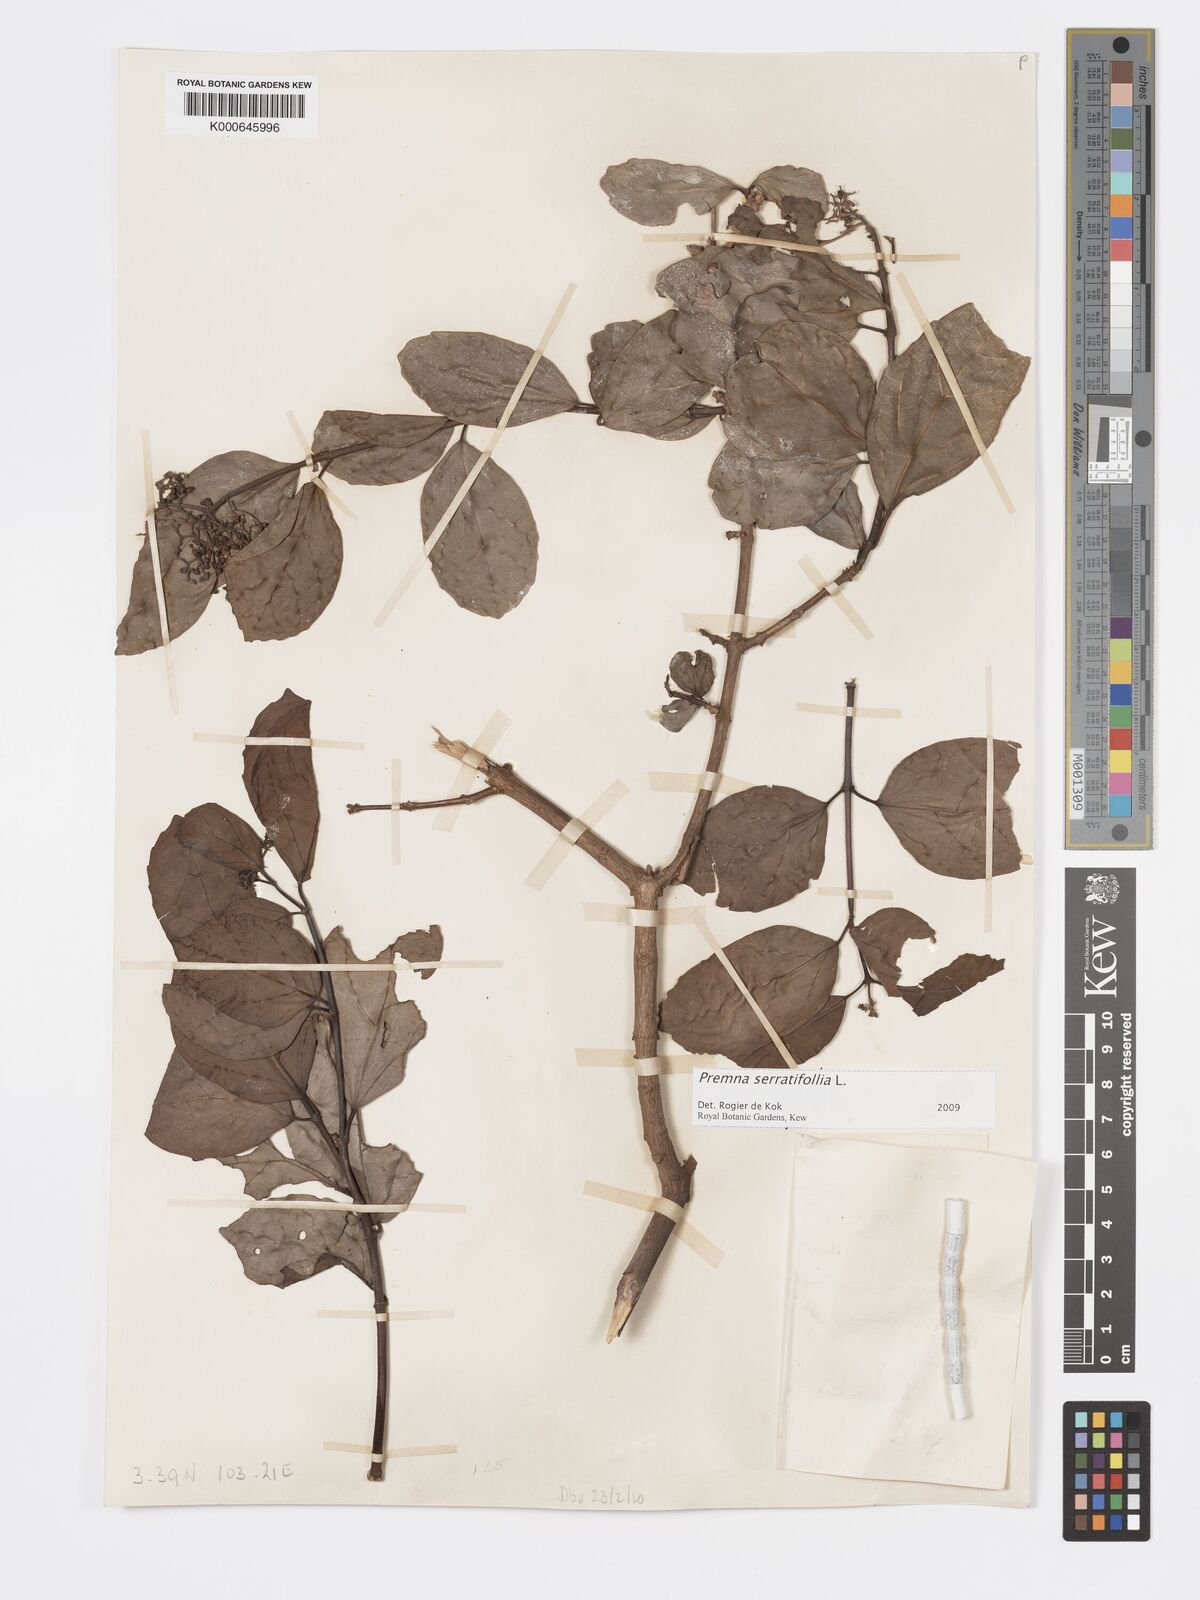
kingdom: Plantae
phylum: Tracheophyta
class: Magnoliopsida
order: Lamiales
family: Lamiaceae
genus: Premna
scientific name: Premna serratifolia
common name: Bastard guelder
